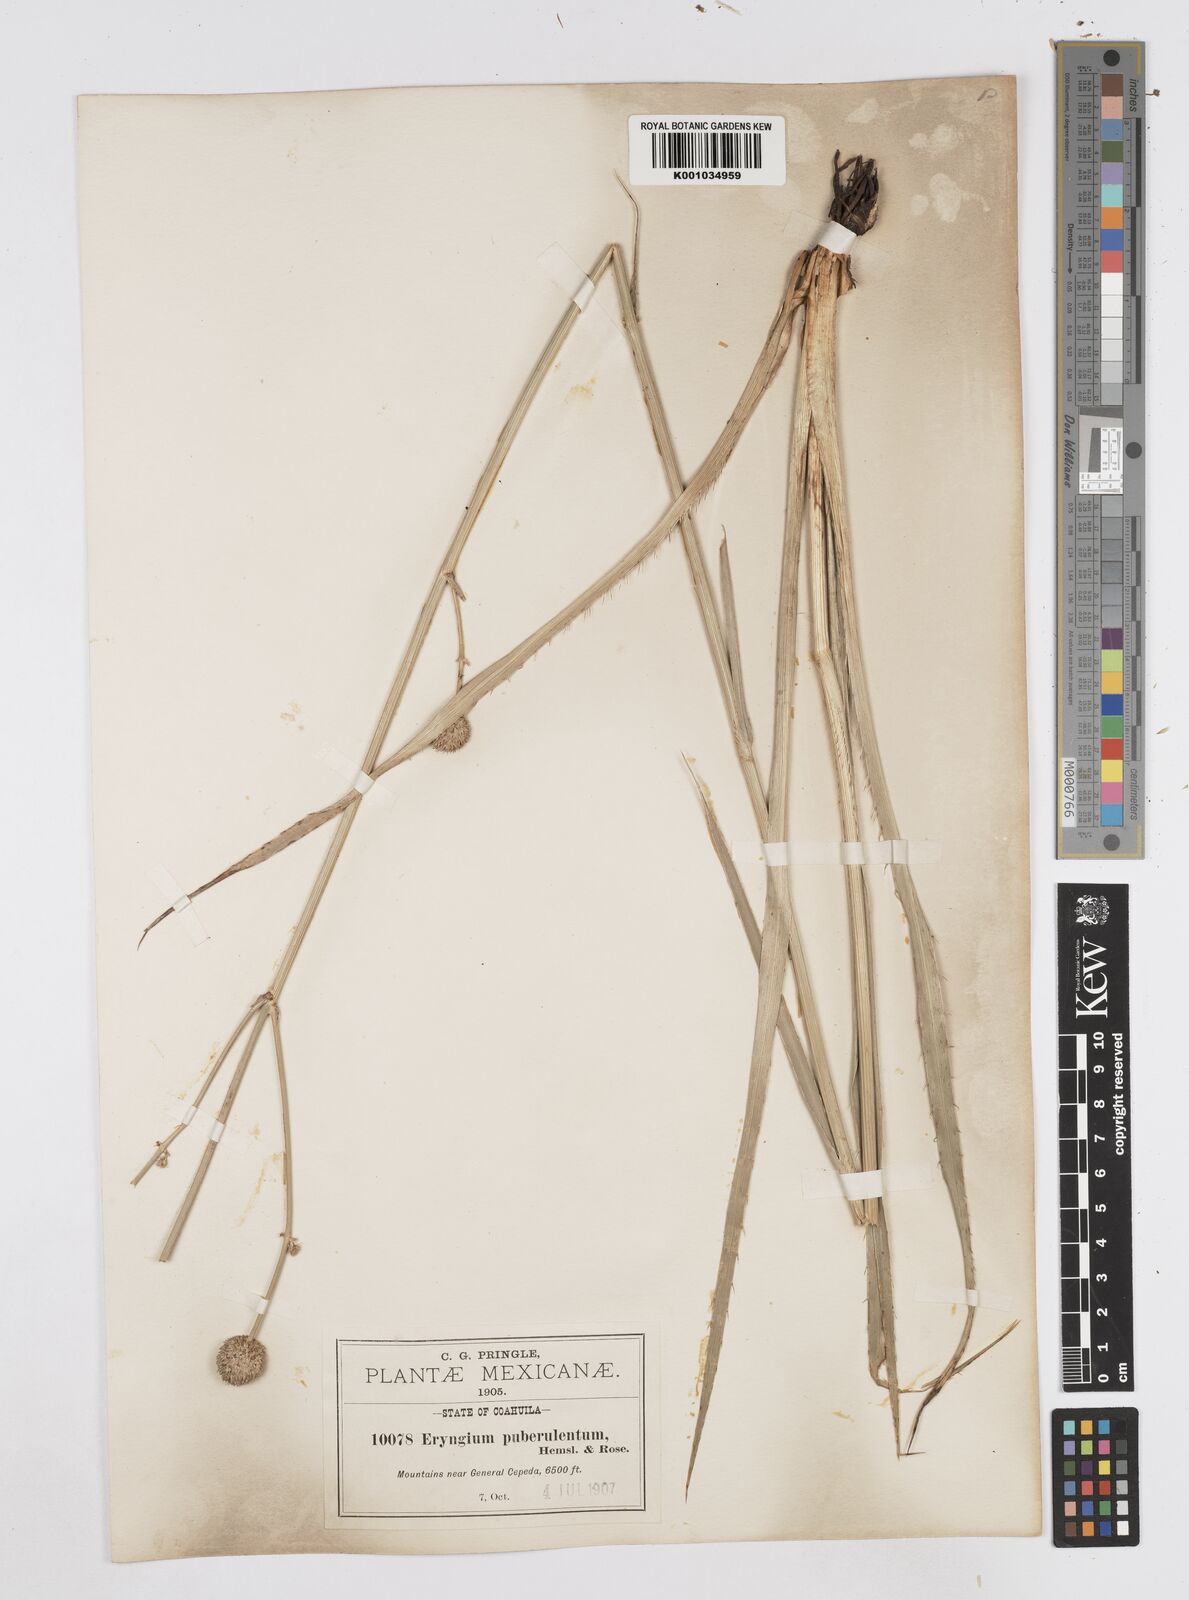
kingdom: Plantae
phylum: Tracheophyta
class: Magnoliopsida
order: Apiales
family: Apiaceae
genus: Eryngium
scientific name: Eryngium gramineum
